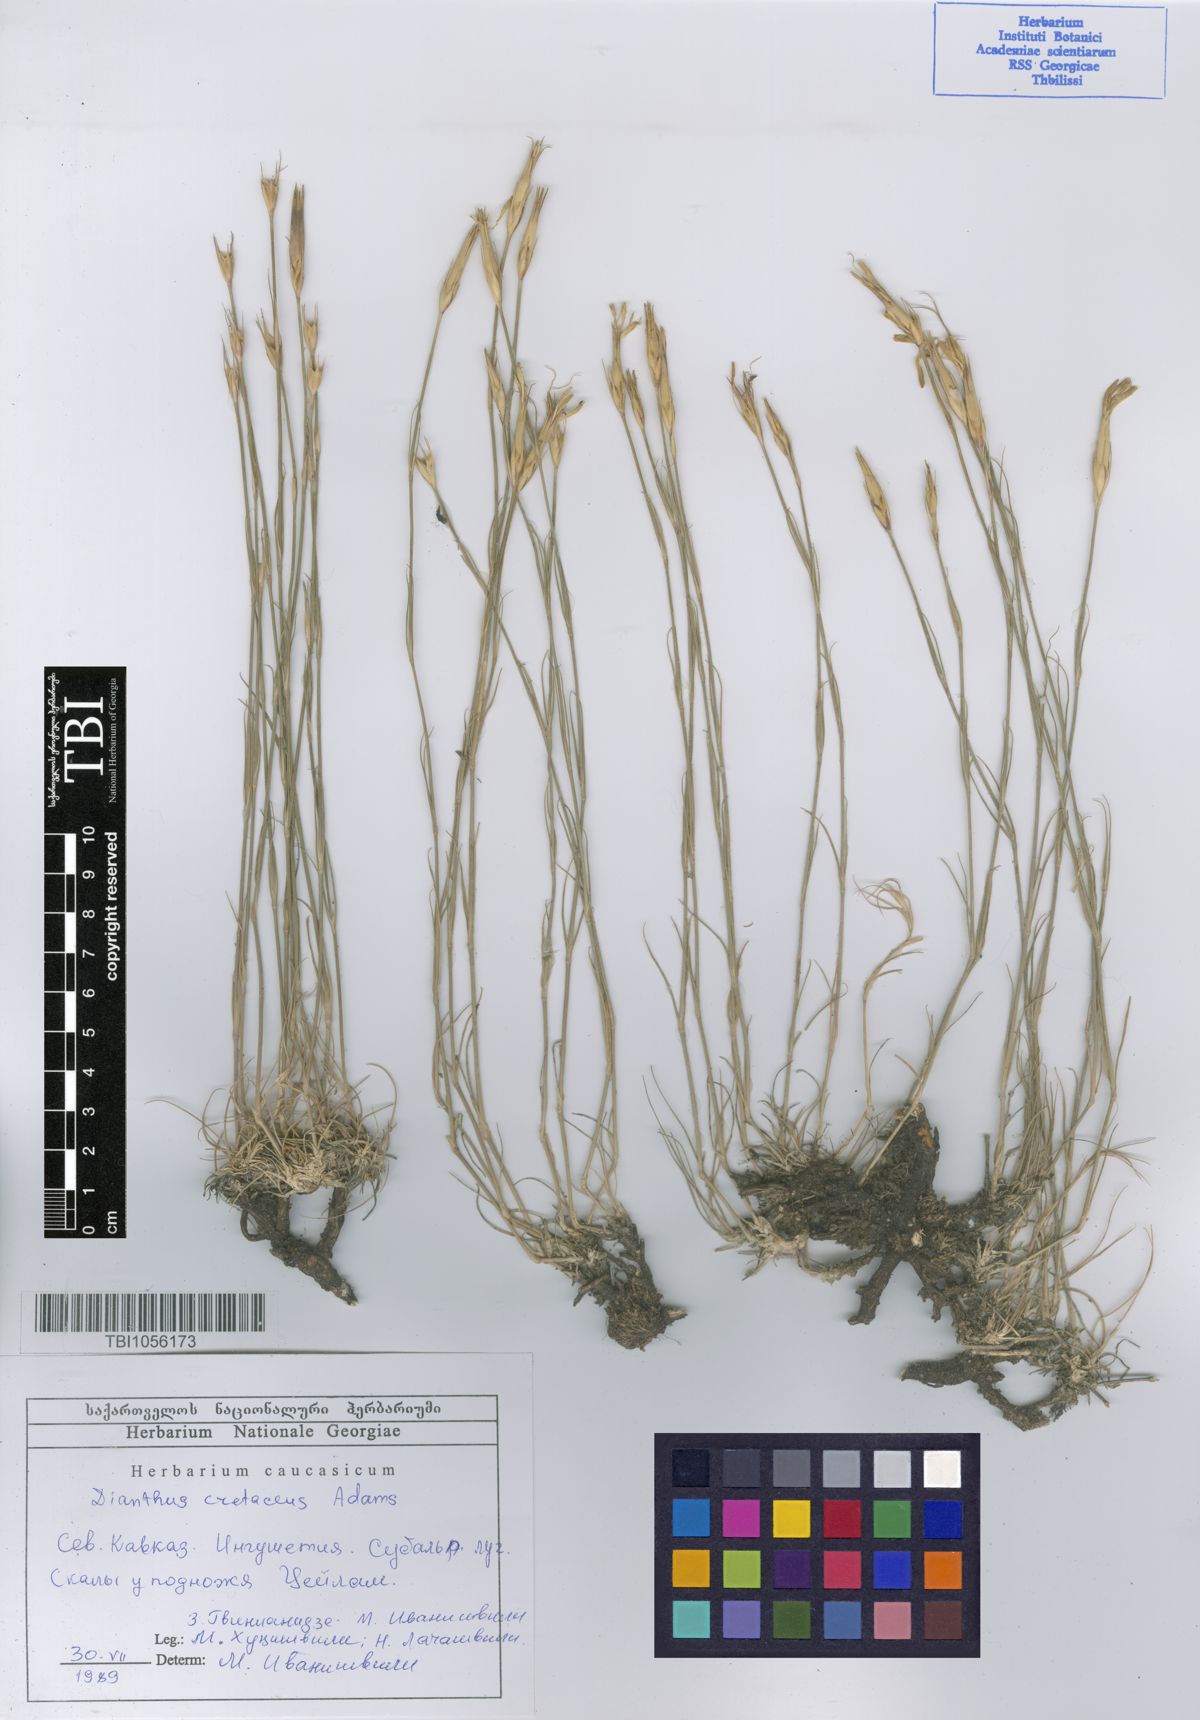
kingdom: Plantae
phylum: Tracheophyta
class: Magnoliopsida
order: Caryophyllales
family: Caryophyllaceae
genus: Dianthus
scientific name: Dianthus cretaceus
